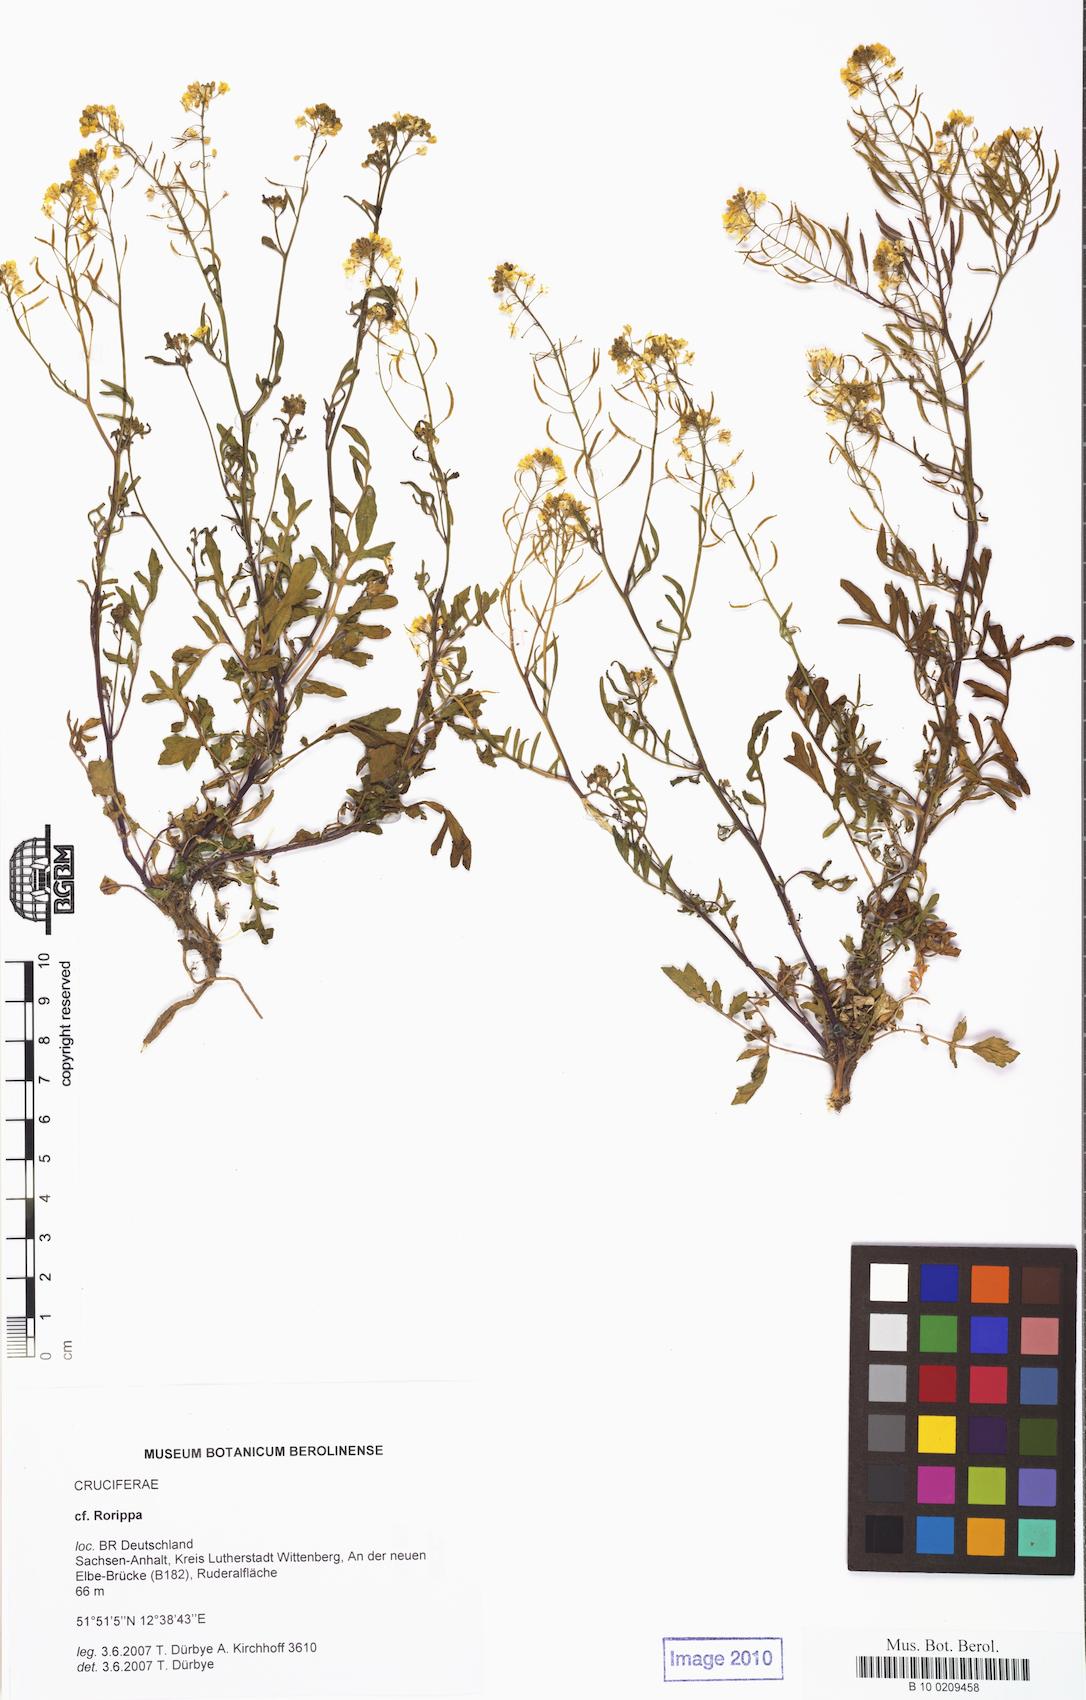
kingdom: Plantae
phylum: Tracheophyta
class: Magnoliopsida
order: Brassicales
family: Brassicaceae
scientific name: Brassicaceae
